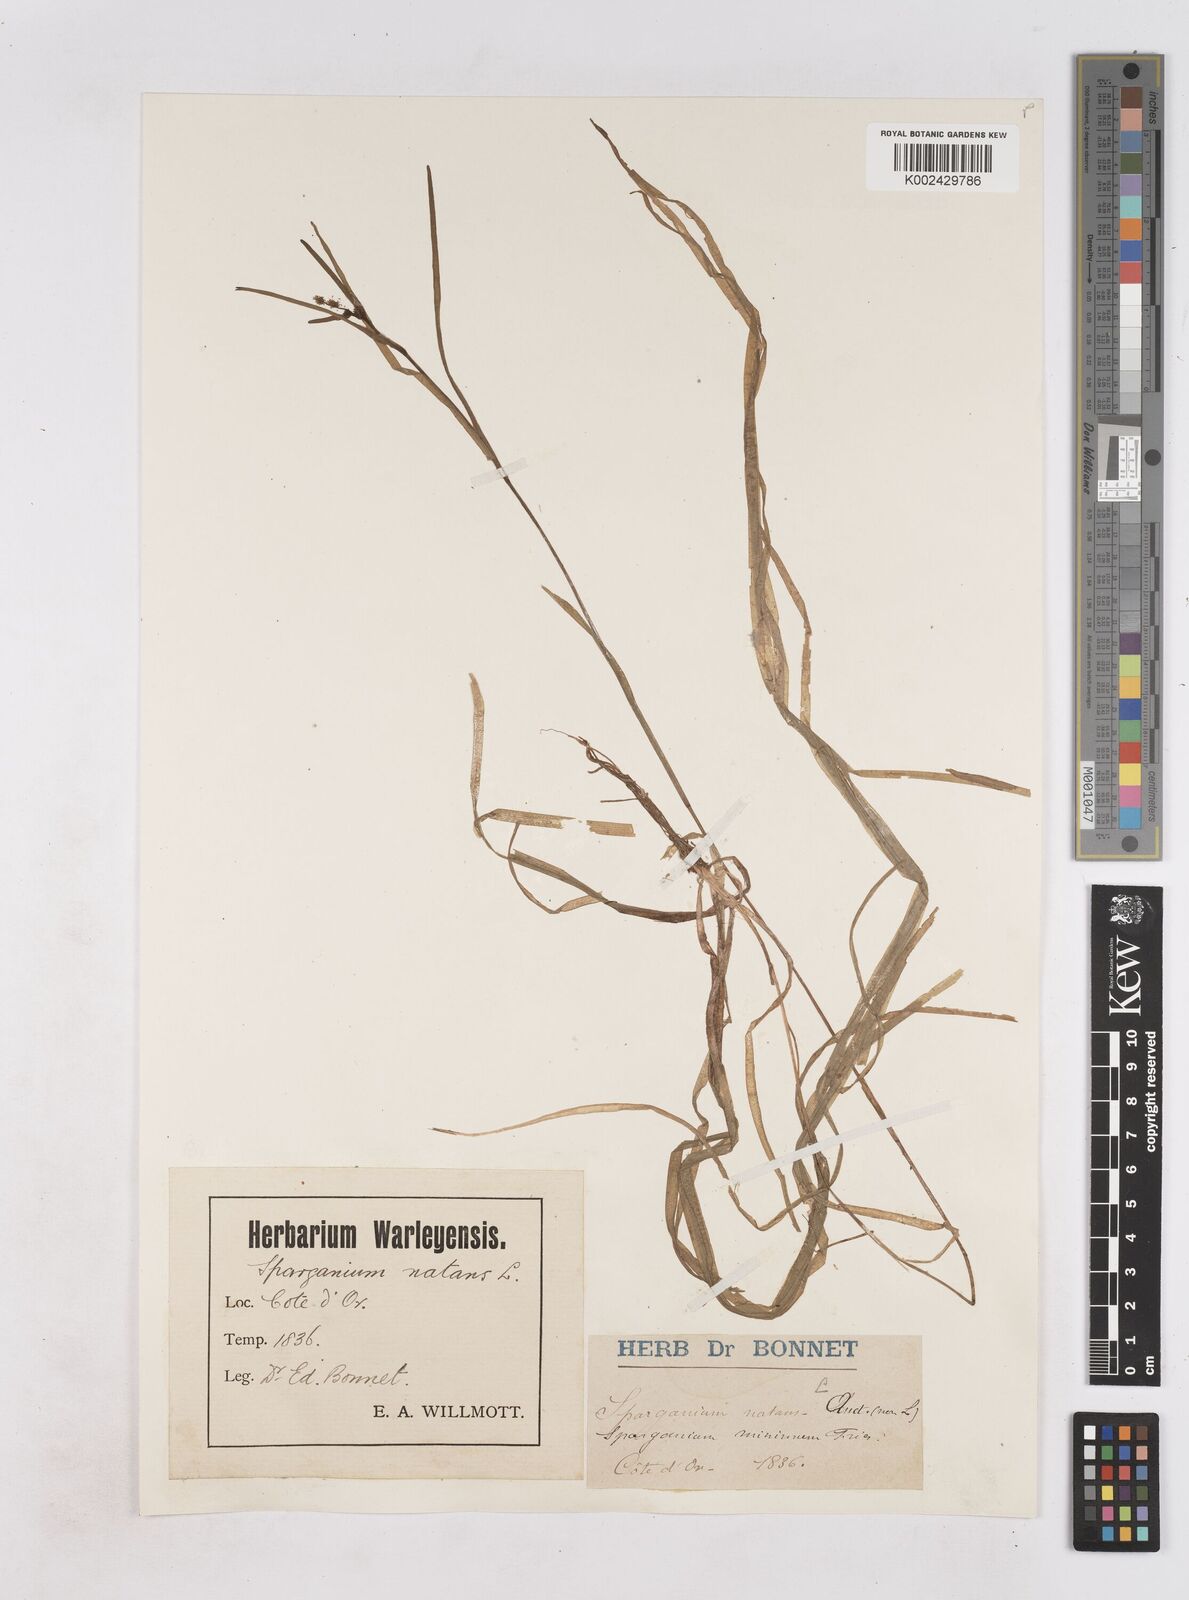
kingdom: Plantae
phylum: Tracheophyta
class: Liliopsida
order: Poales
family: Typhaceae
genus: Sparganium
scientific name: Sparganium angustifolium
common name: Floating bur-reed
